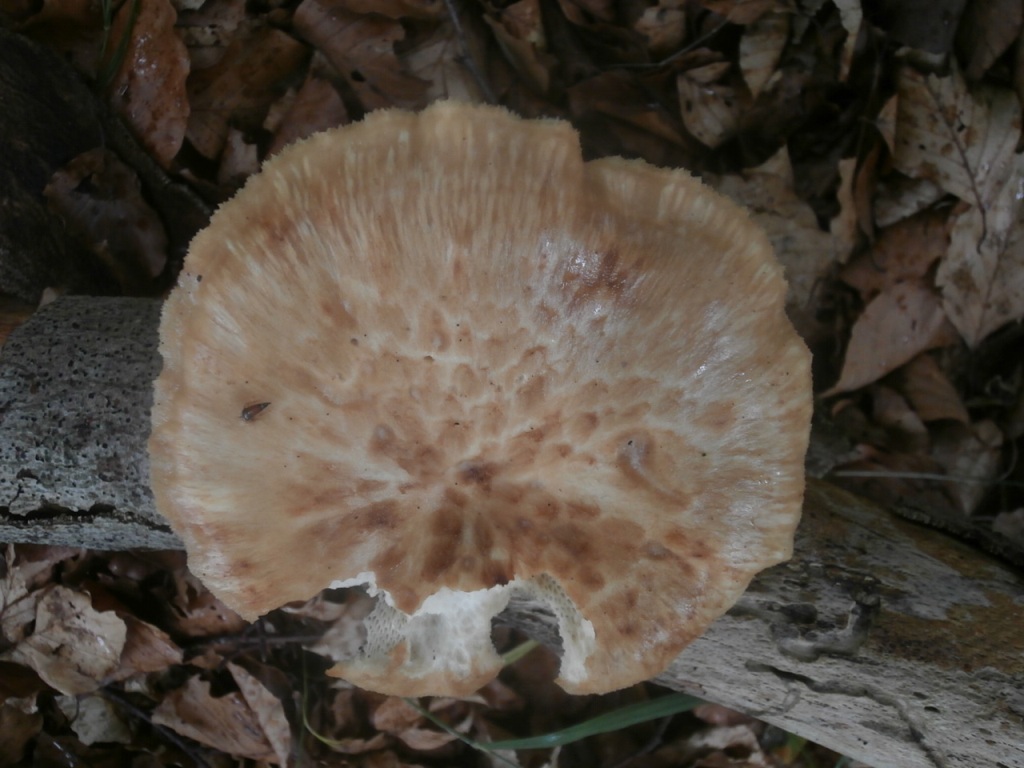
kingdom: Fungi
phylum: Basidiomycota
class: Agaricomycetes
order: Polyporales
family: Polyporaceae
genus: Polyporus
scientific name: Polyporus tuberaster
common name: knoldet stilkporesvamp
